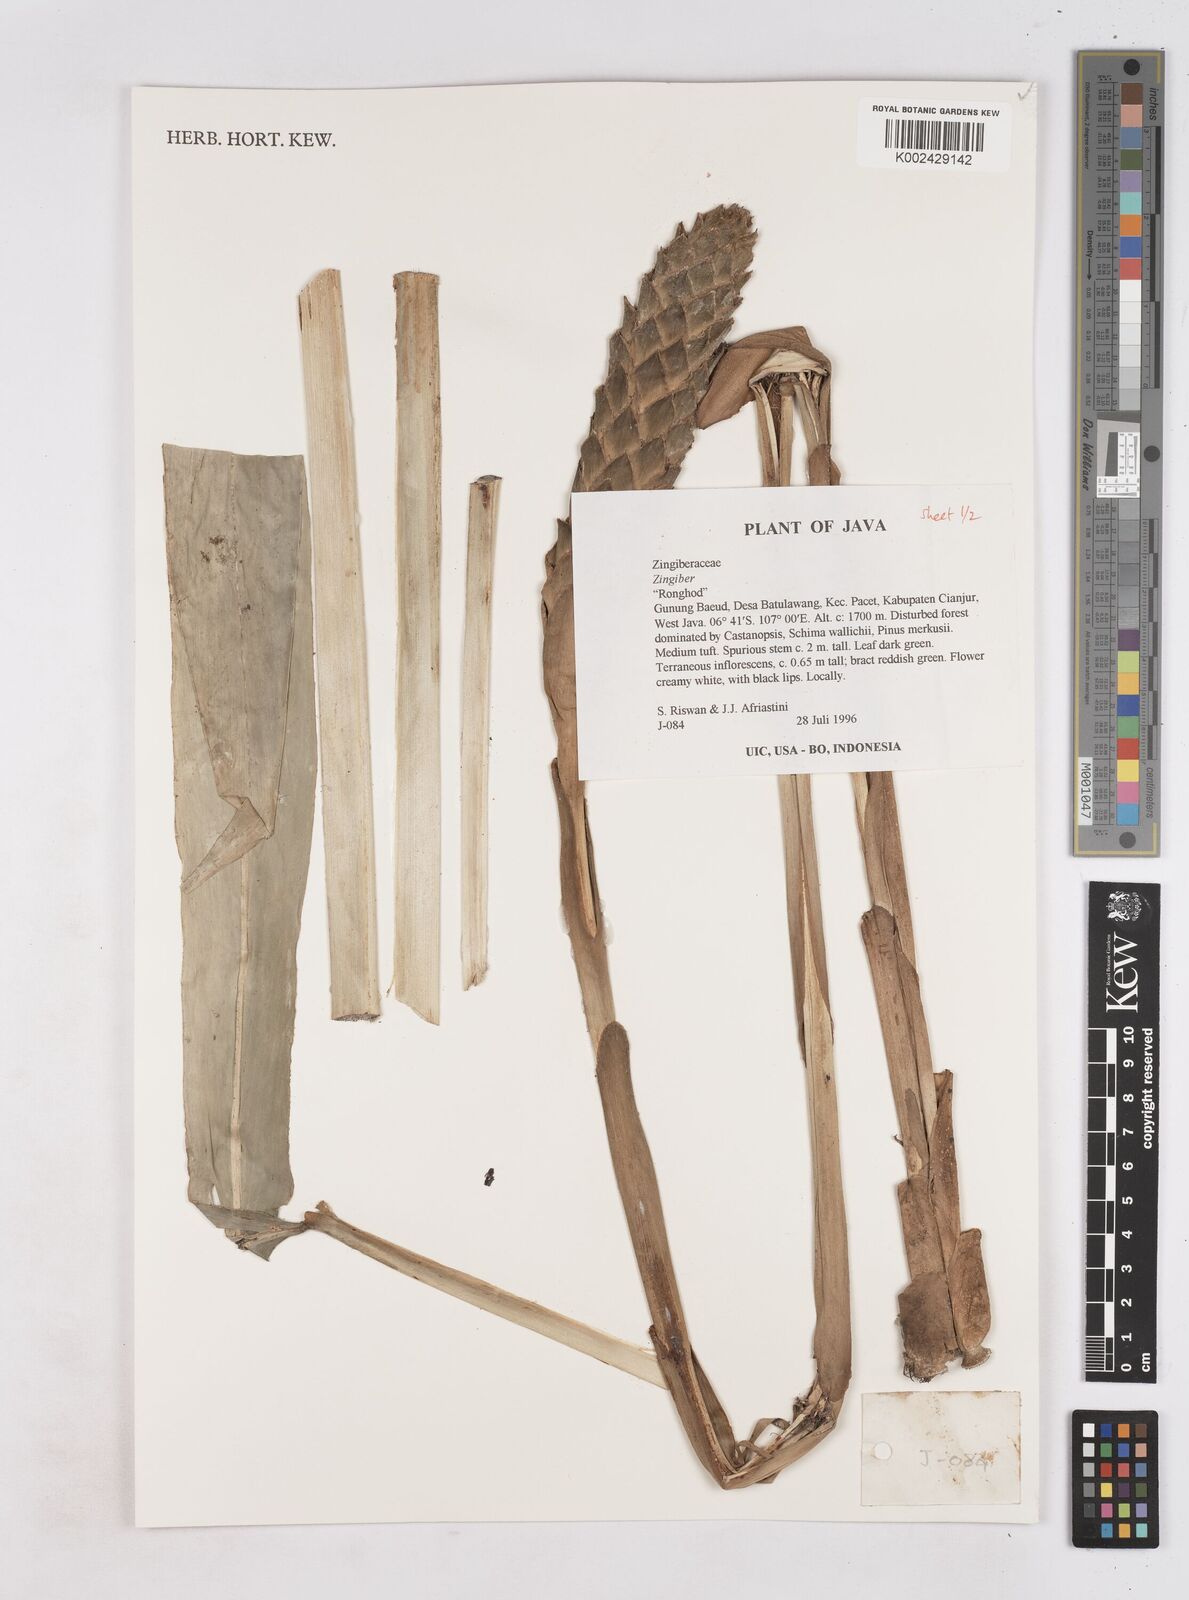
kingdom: Plantae
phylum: Tracheophyta
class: Liliopsida
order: Zingiberales
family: Zingiberaceae
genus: Zingiber
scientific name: Zingiber
